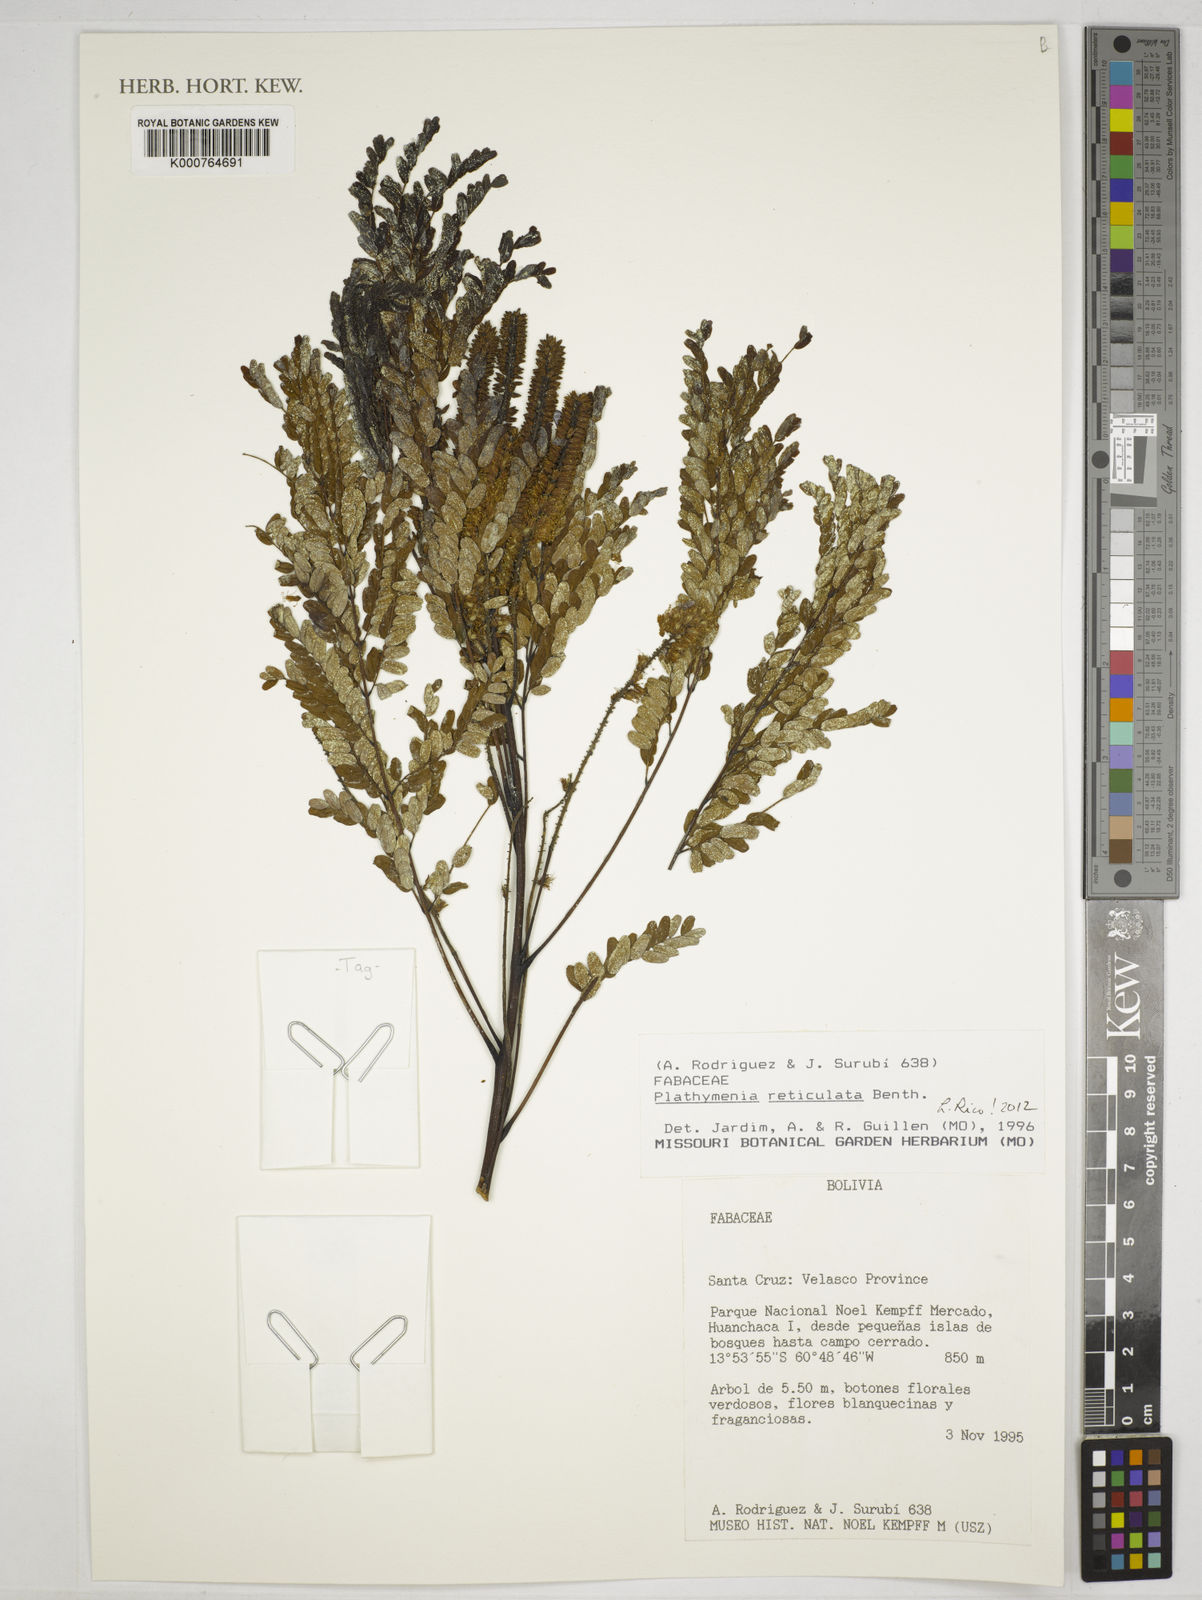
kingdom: Plantae
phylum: Tracheophyta
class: Magnoliopsida
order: Fabales
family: Fabaceae
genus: Plathymenia
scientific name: Plathymenia reticulata
